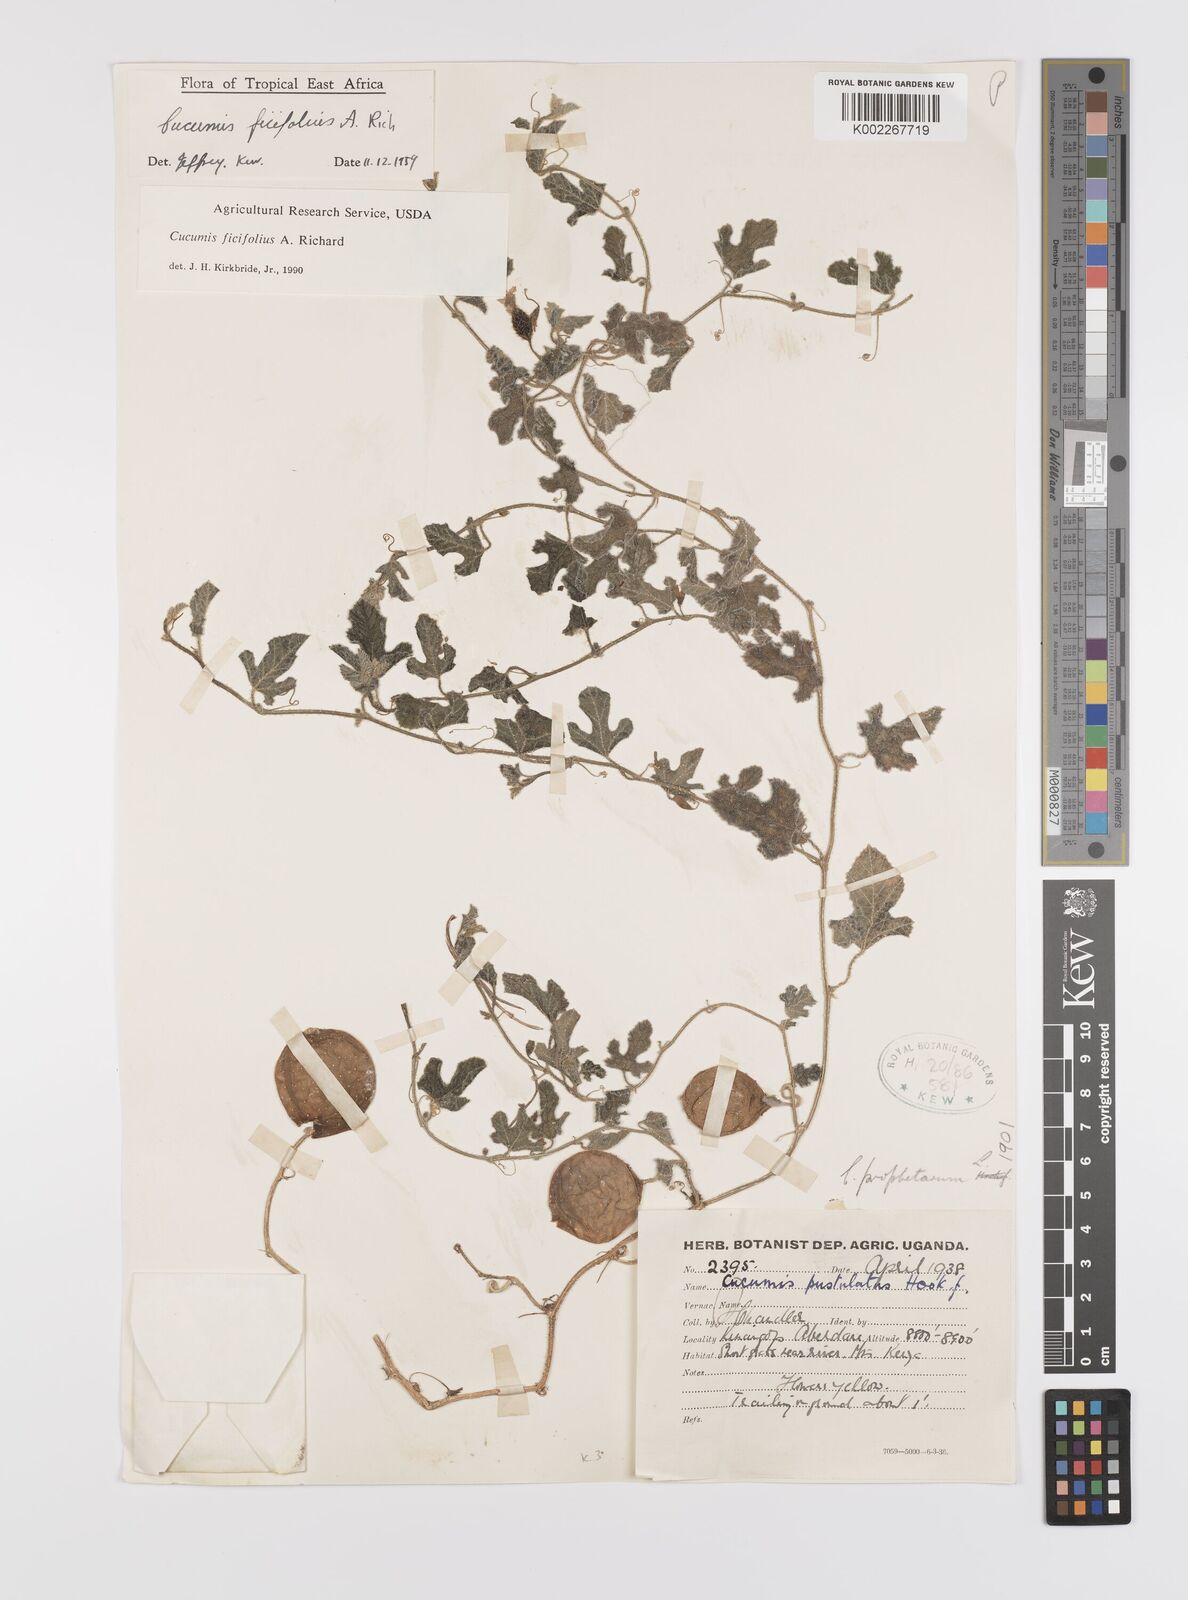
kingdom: Plantae
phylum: Tracheophyta
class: Magnoliopsida
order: Cucurbitales
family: Cucurbitaceae
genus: Cucumis
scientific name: Cucumis ficifolius
